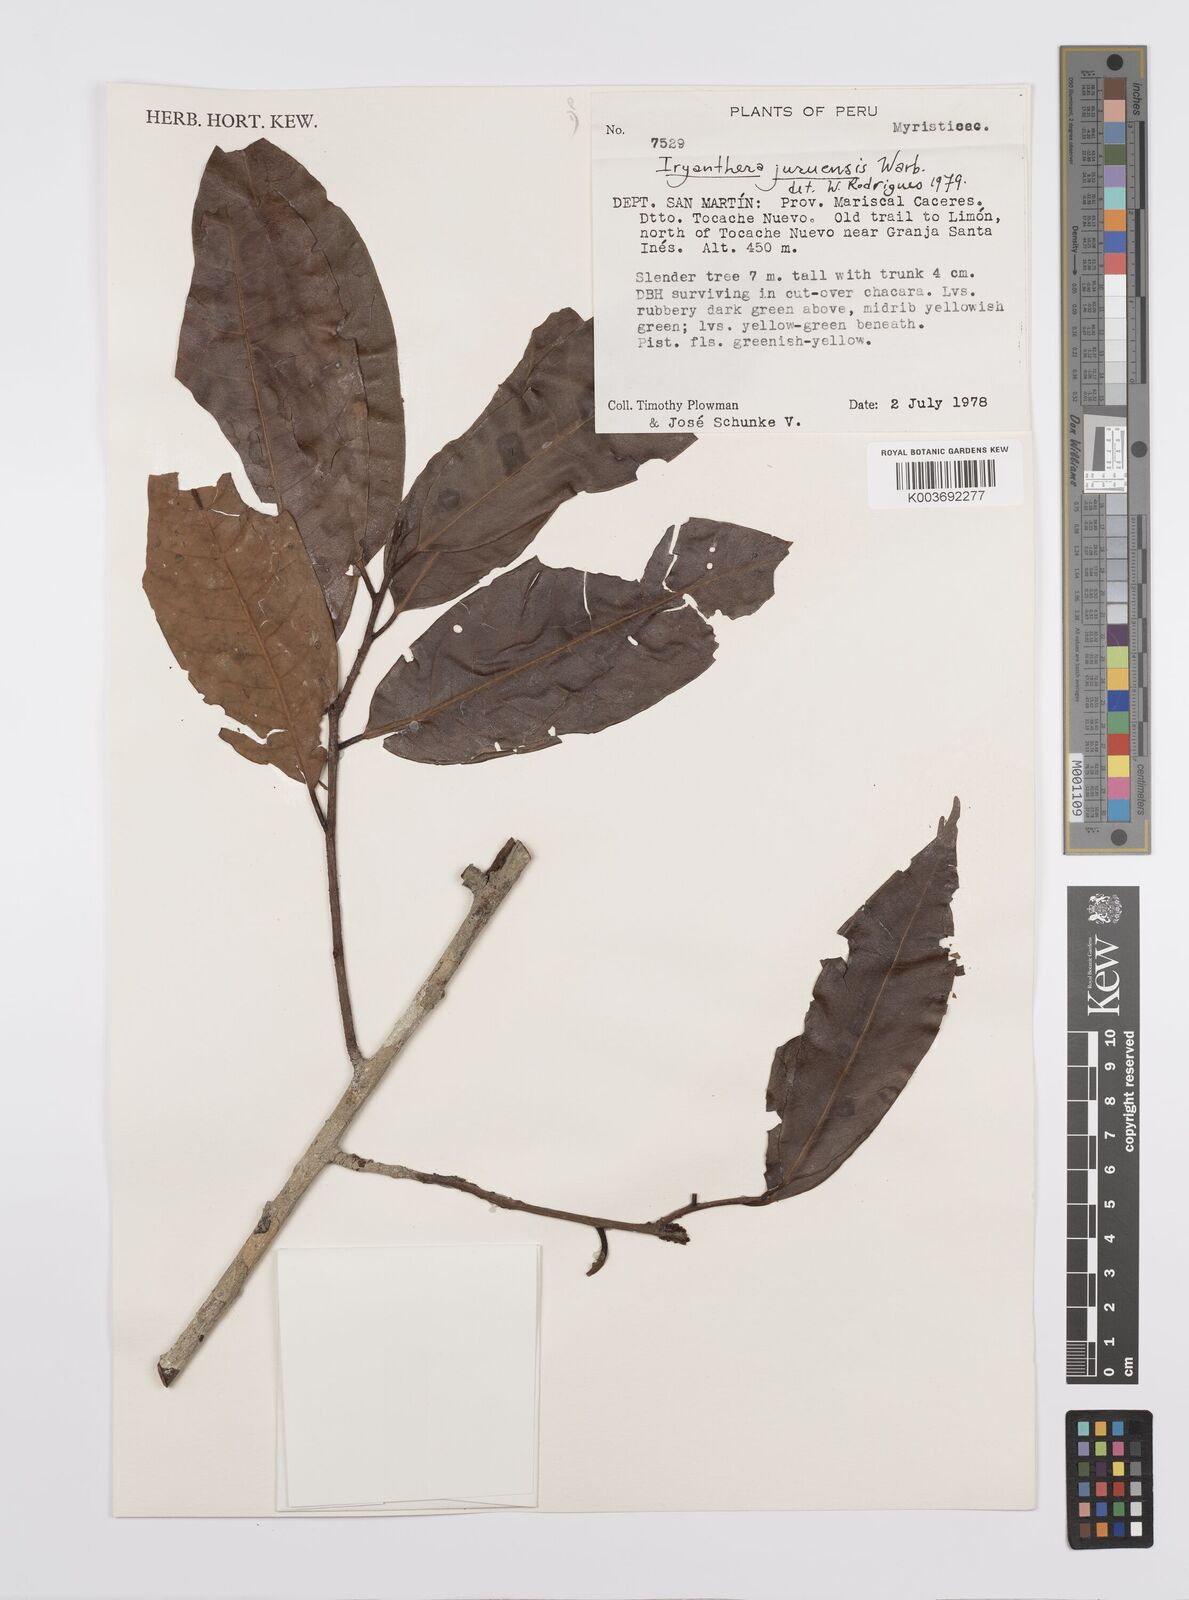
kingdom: Plantae
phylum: Tracheophyta
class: Magnoliopsida
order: Magnoliales
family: Myristicaceae
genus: Iryanthera
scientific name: Iryanthera juruensis
